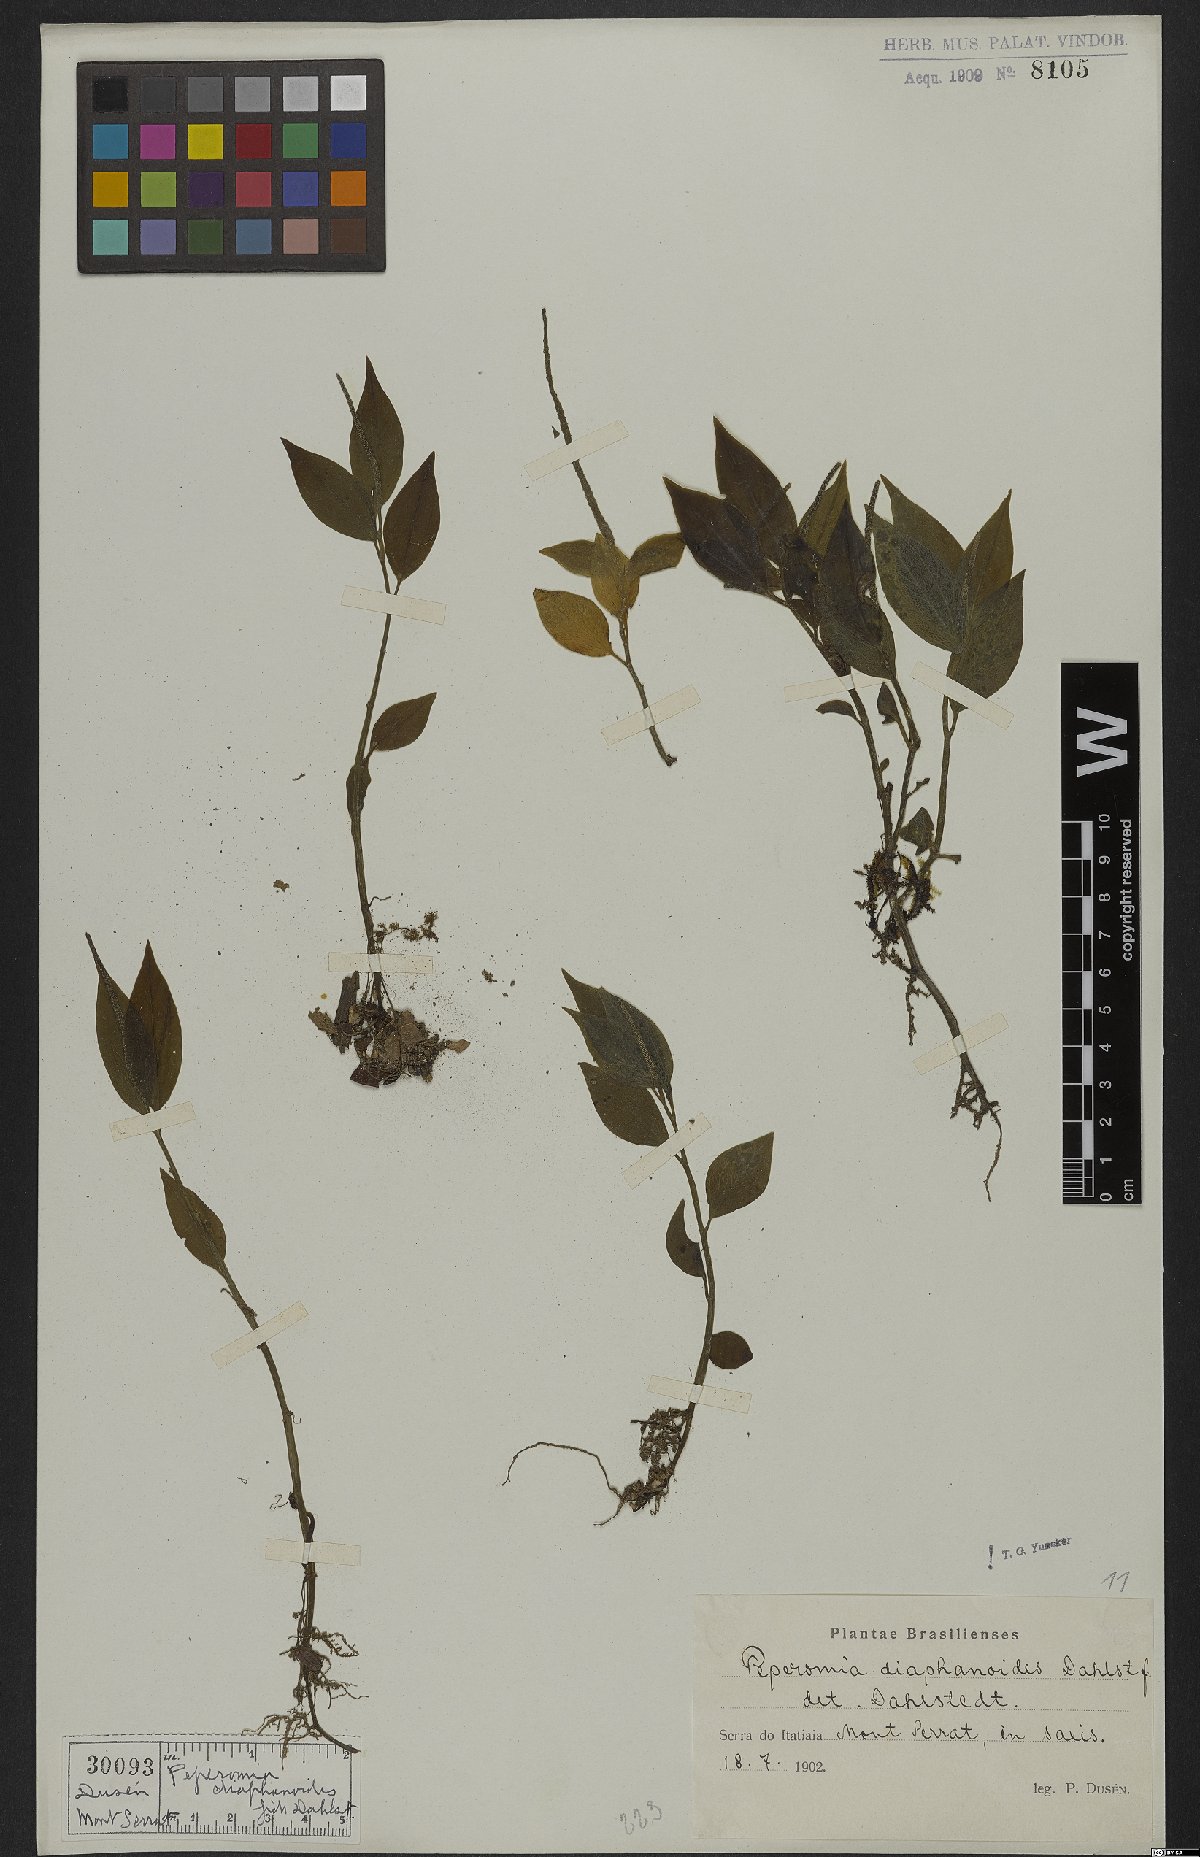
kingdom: Plantae
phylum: Tracheophyta
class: Magnoliopsida
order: Piperales
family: Piperaceae
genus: Peperomia
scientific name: Peperomia diaphanoides
